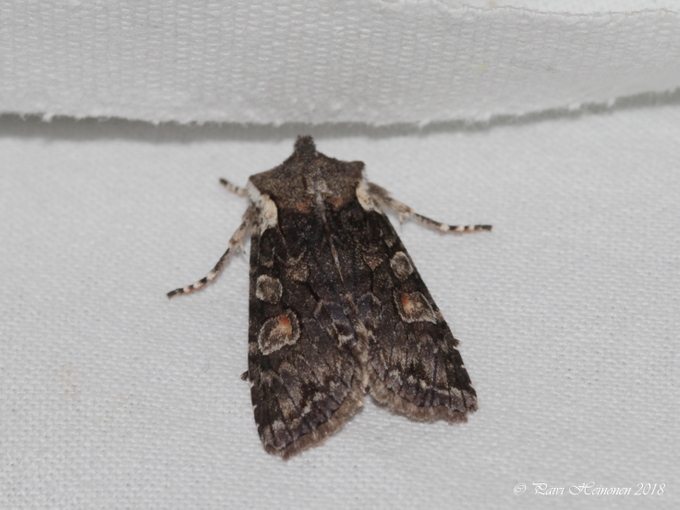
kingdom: Animalia
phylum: Arthropoda
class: Insecta
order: Lepidoptera
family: Noctuidae
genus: Lithophane
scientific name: Lithophane consocia
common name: Softly's shoulder-knot
